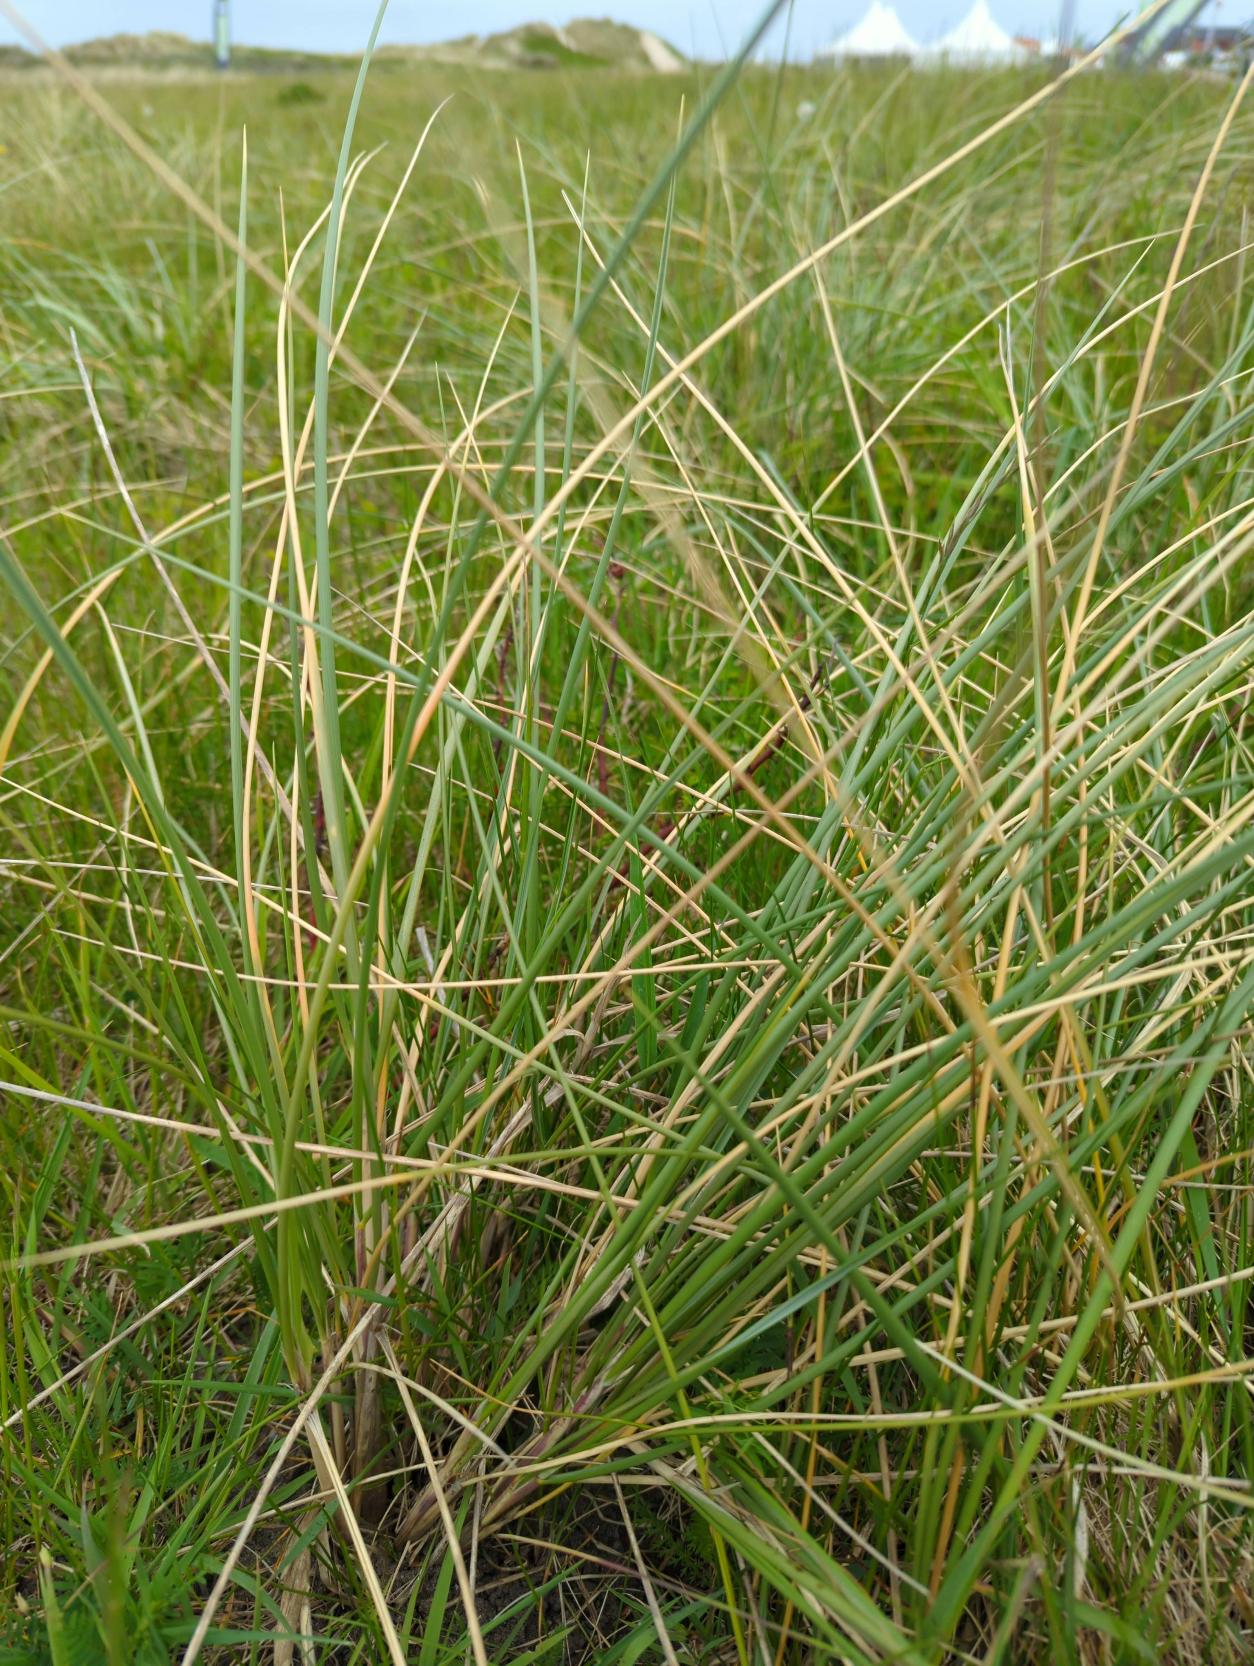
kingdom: Plantae
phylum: Tracheophyta
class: Liliopsida
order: Poales
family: Poaceae
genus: Calamagrostis
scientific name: Calamagrostis arenaria
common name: Sand-hjælme
